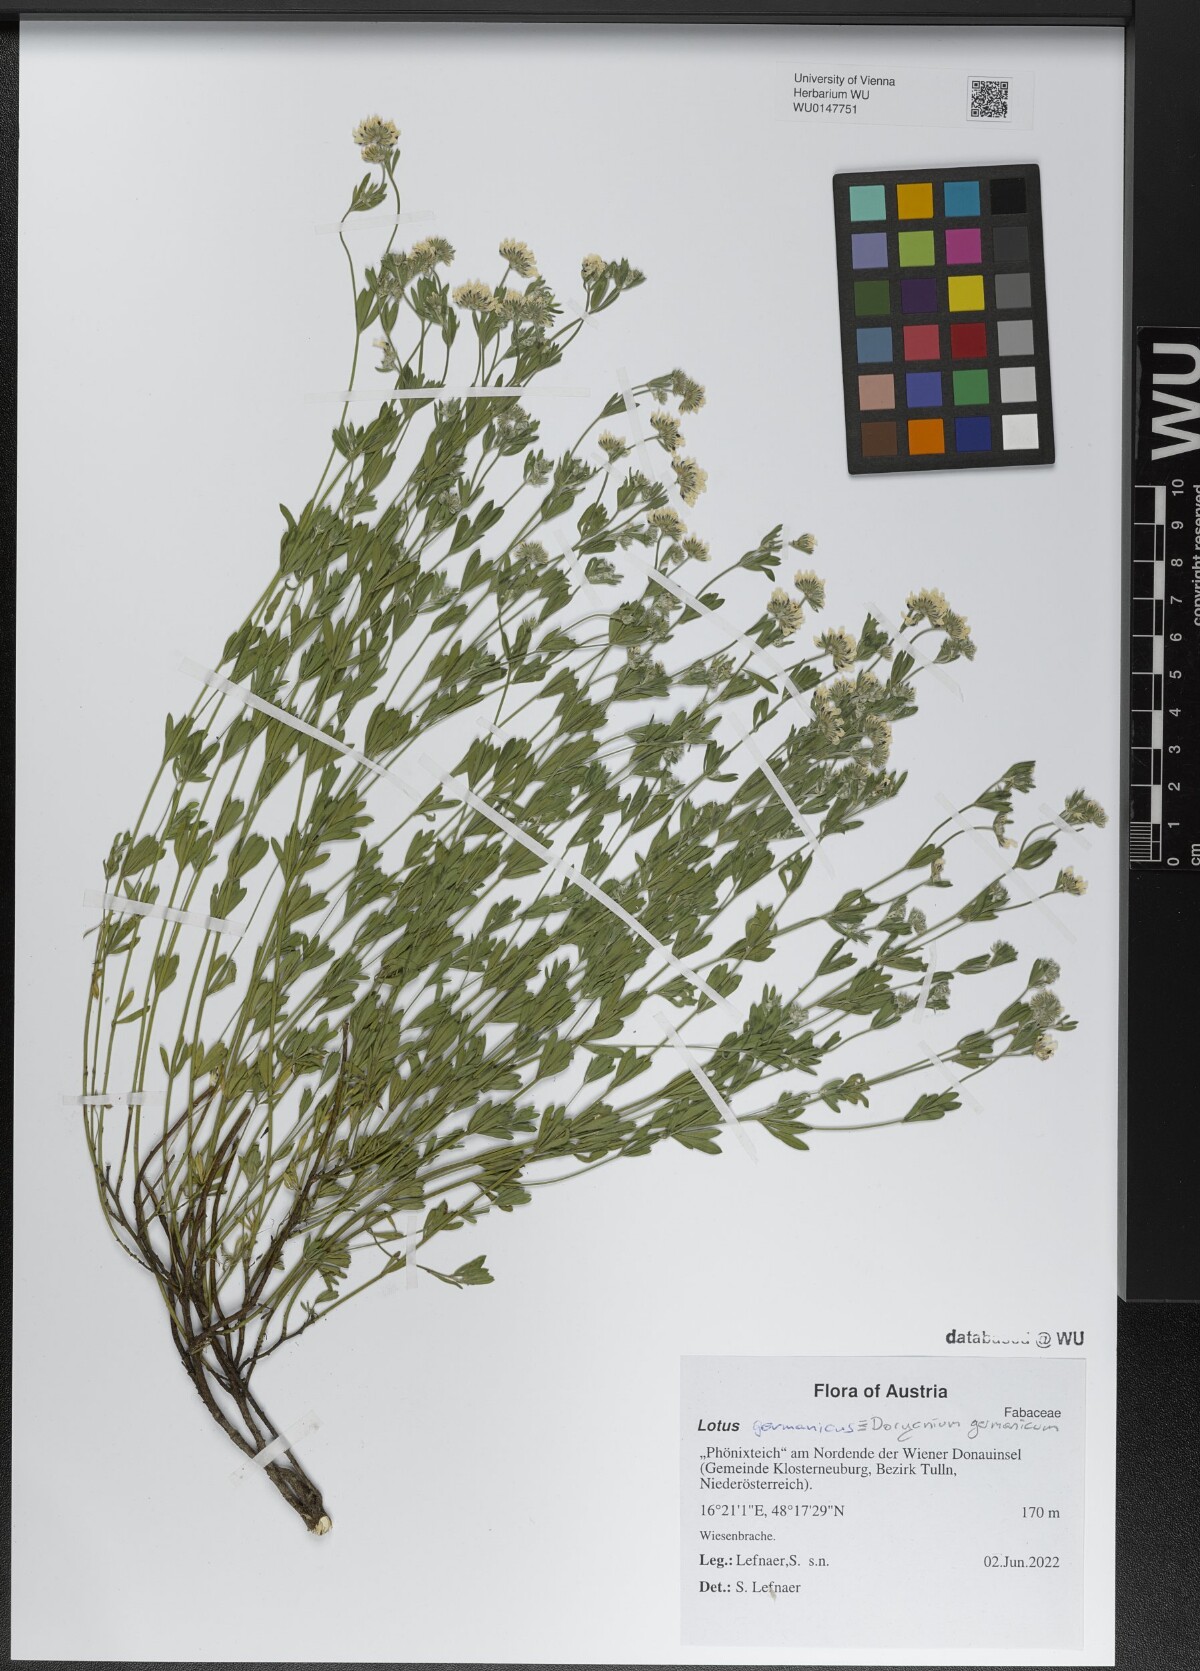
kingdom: Plantae
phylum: Tracheophyta
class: Magnoliopsida
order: Fabales
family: Fabaceae
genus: Lotus
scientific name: Lotus germanicus
